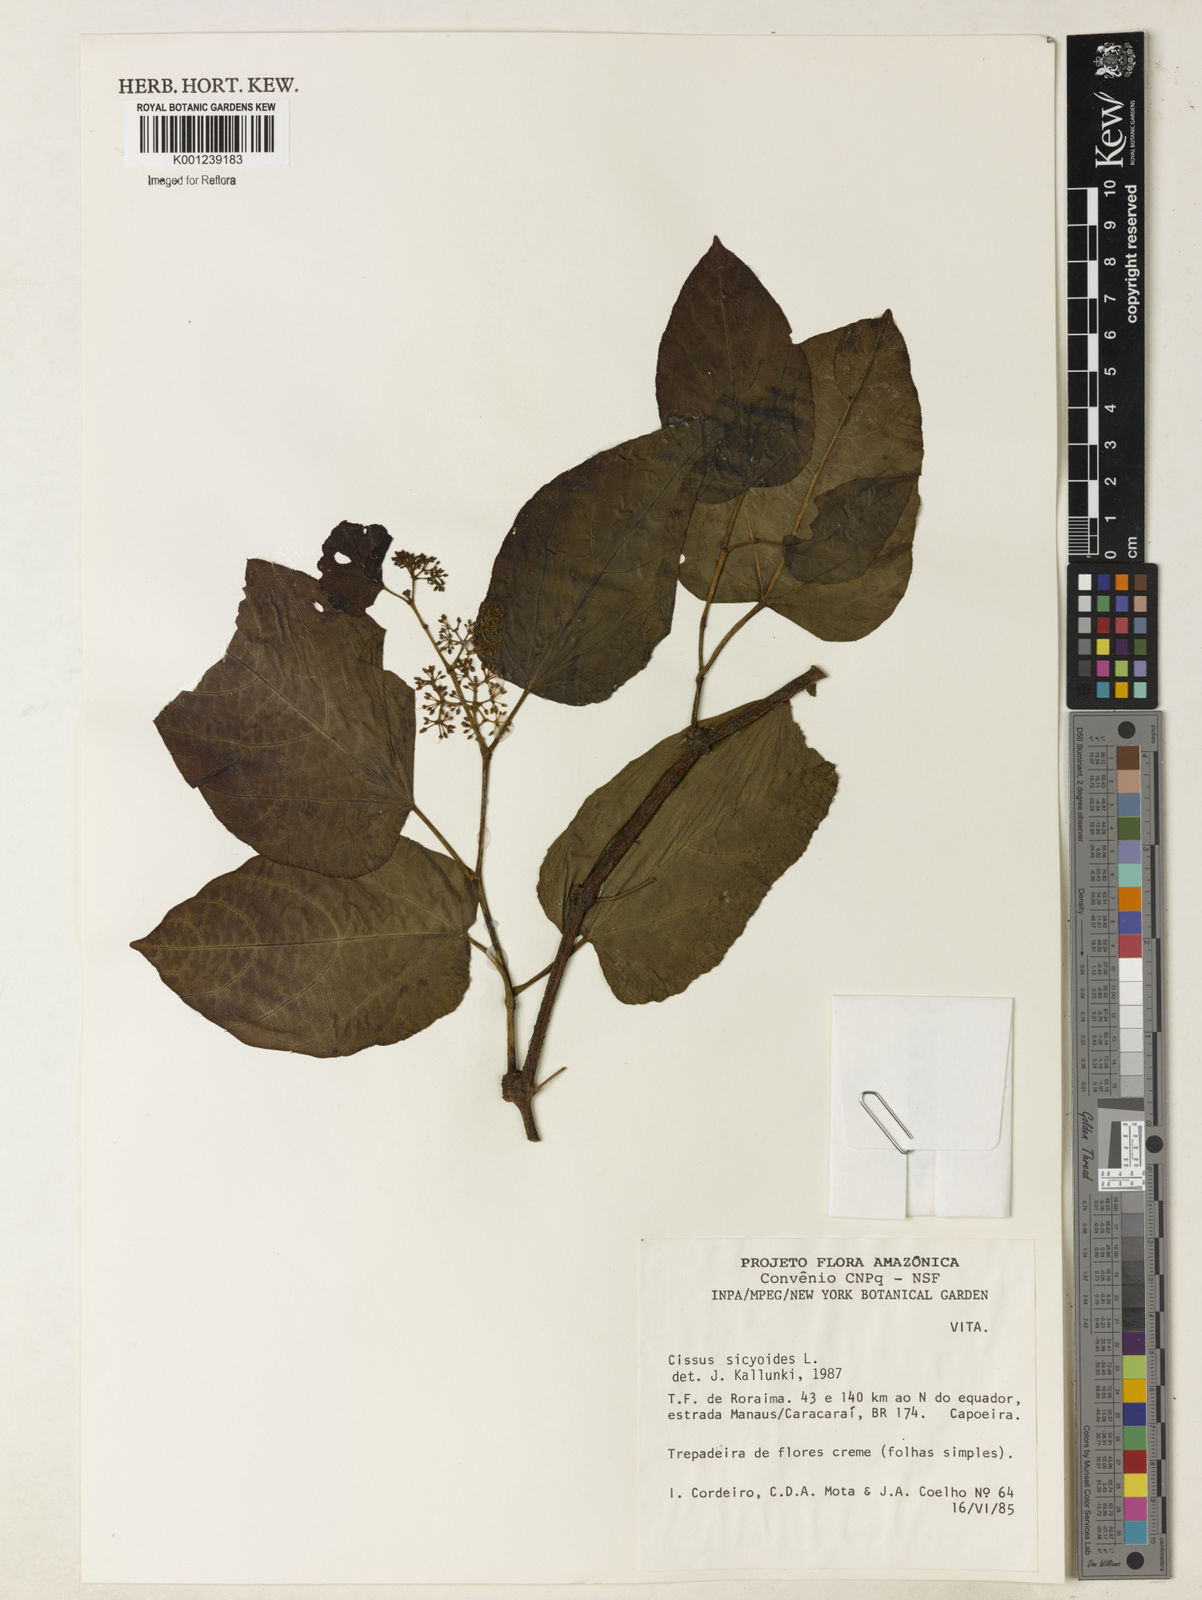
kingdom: Plantae
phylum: Tracheophyta
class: Magnoliopsida
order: Vitales
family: Vitaceae
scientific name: Vitaceae
